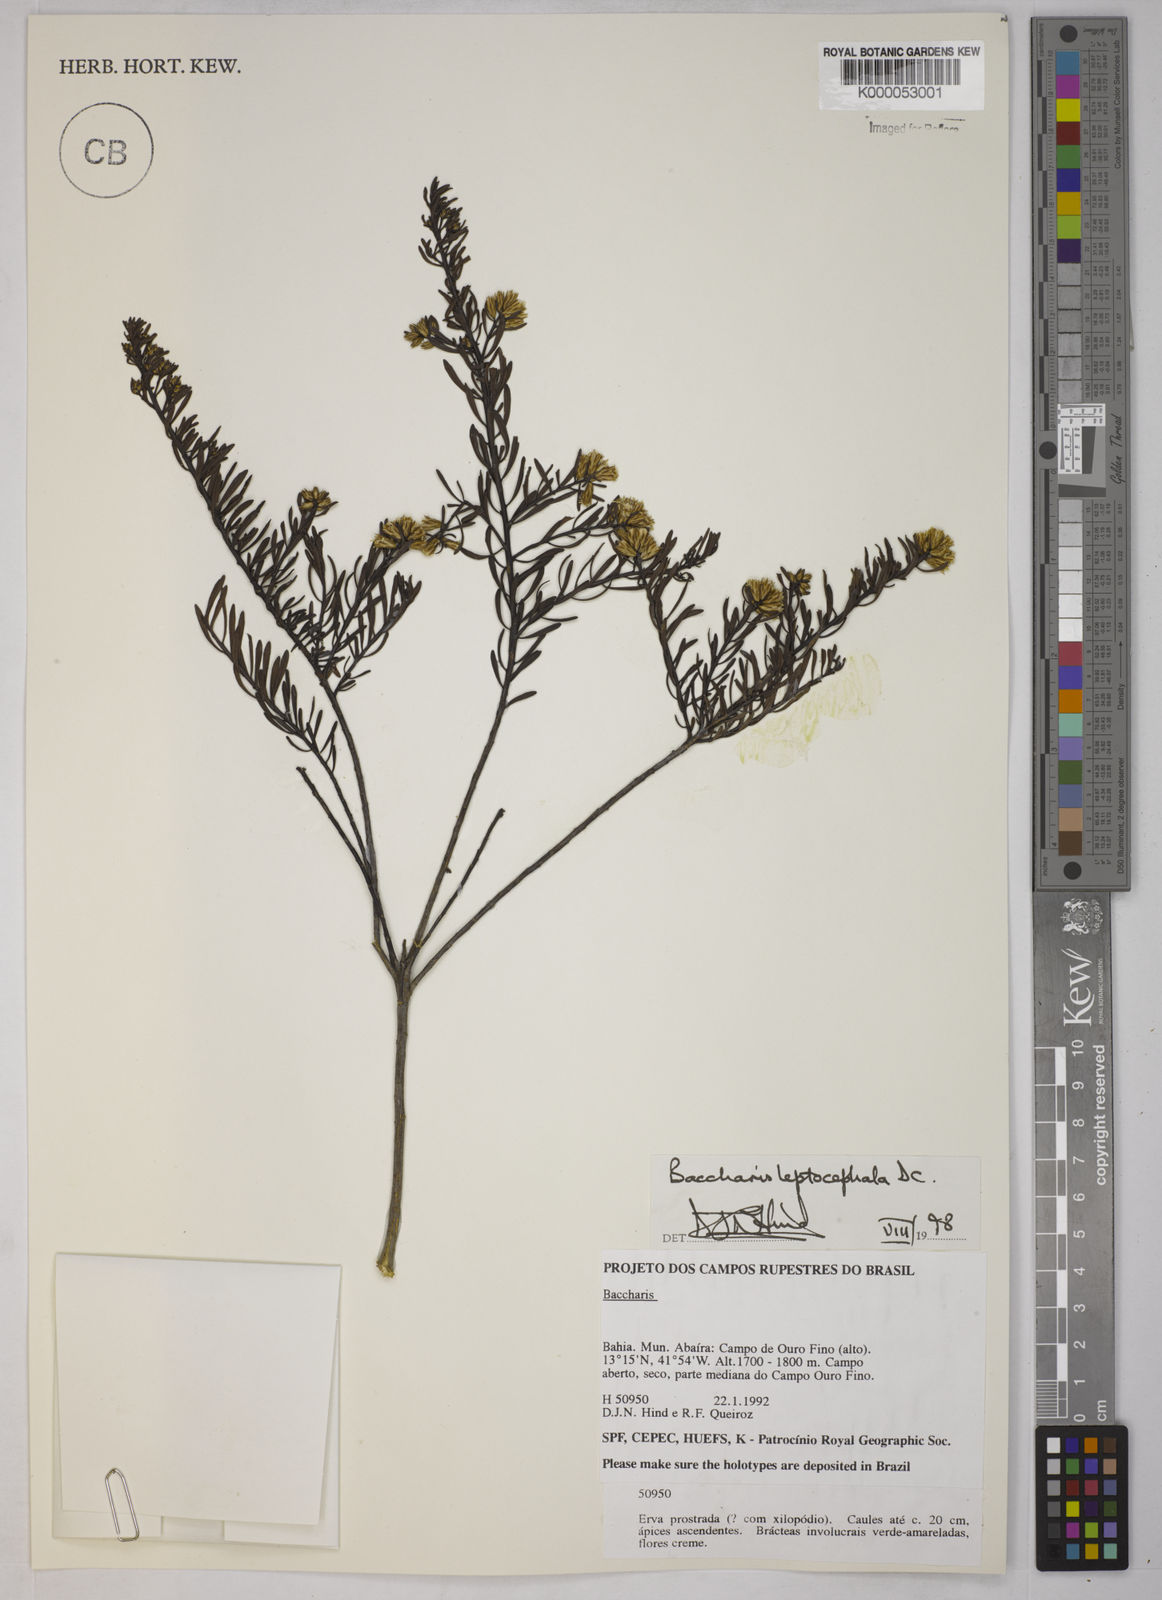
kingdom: Plantae
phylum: Tracheophyta
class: Magnoliopsida
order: Asterales
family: Asteraceae
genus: Baccharis
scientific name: Baccharis leptocephala
